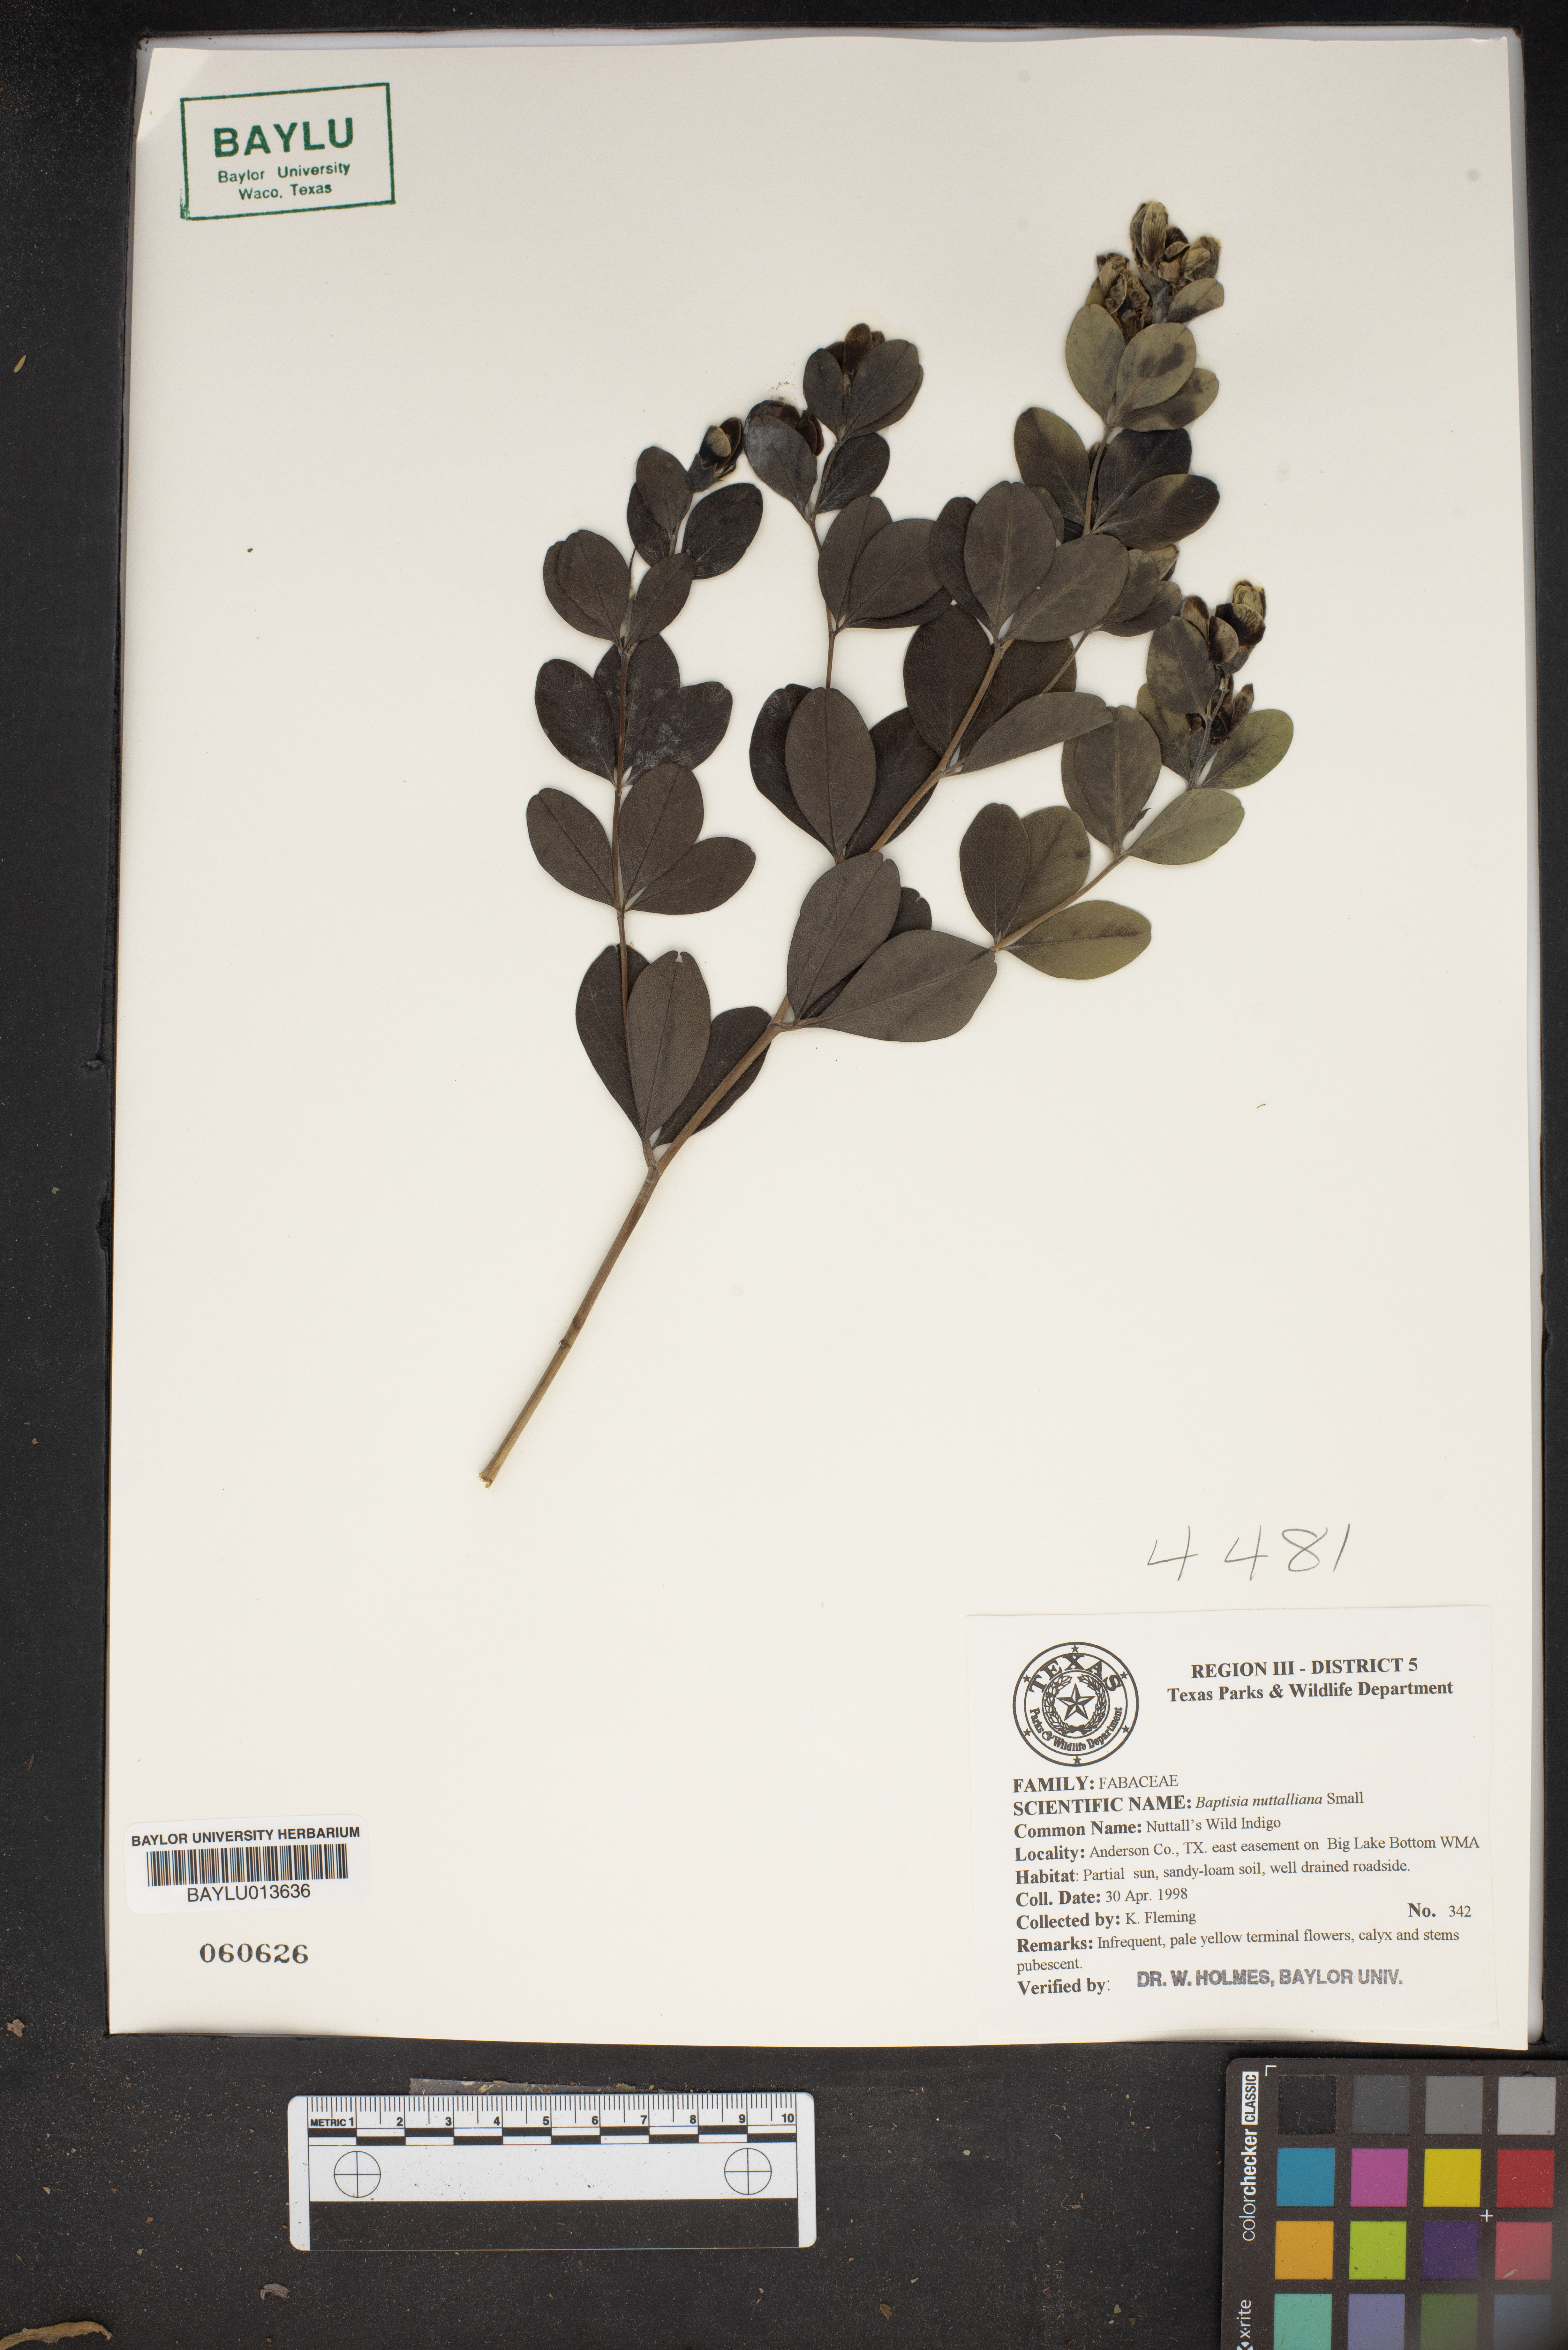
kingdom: Plantae
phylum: Tracheophyta
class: Magnoliopsida
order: Fabales
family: Fabaceae
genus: Baptisia
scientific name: Baptisia nuttalliana
